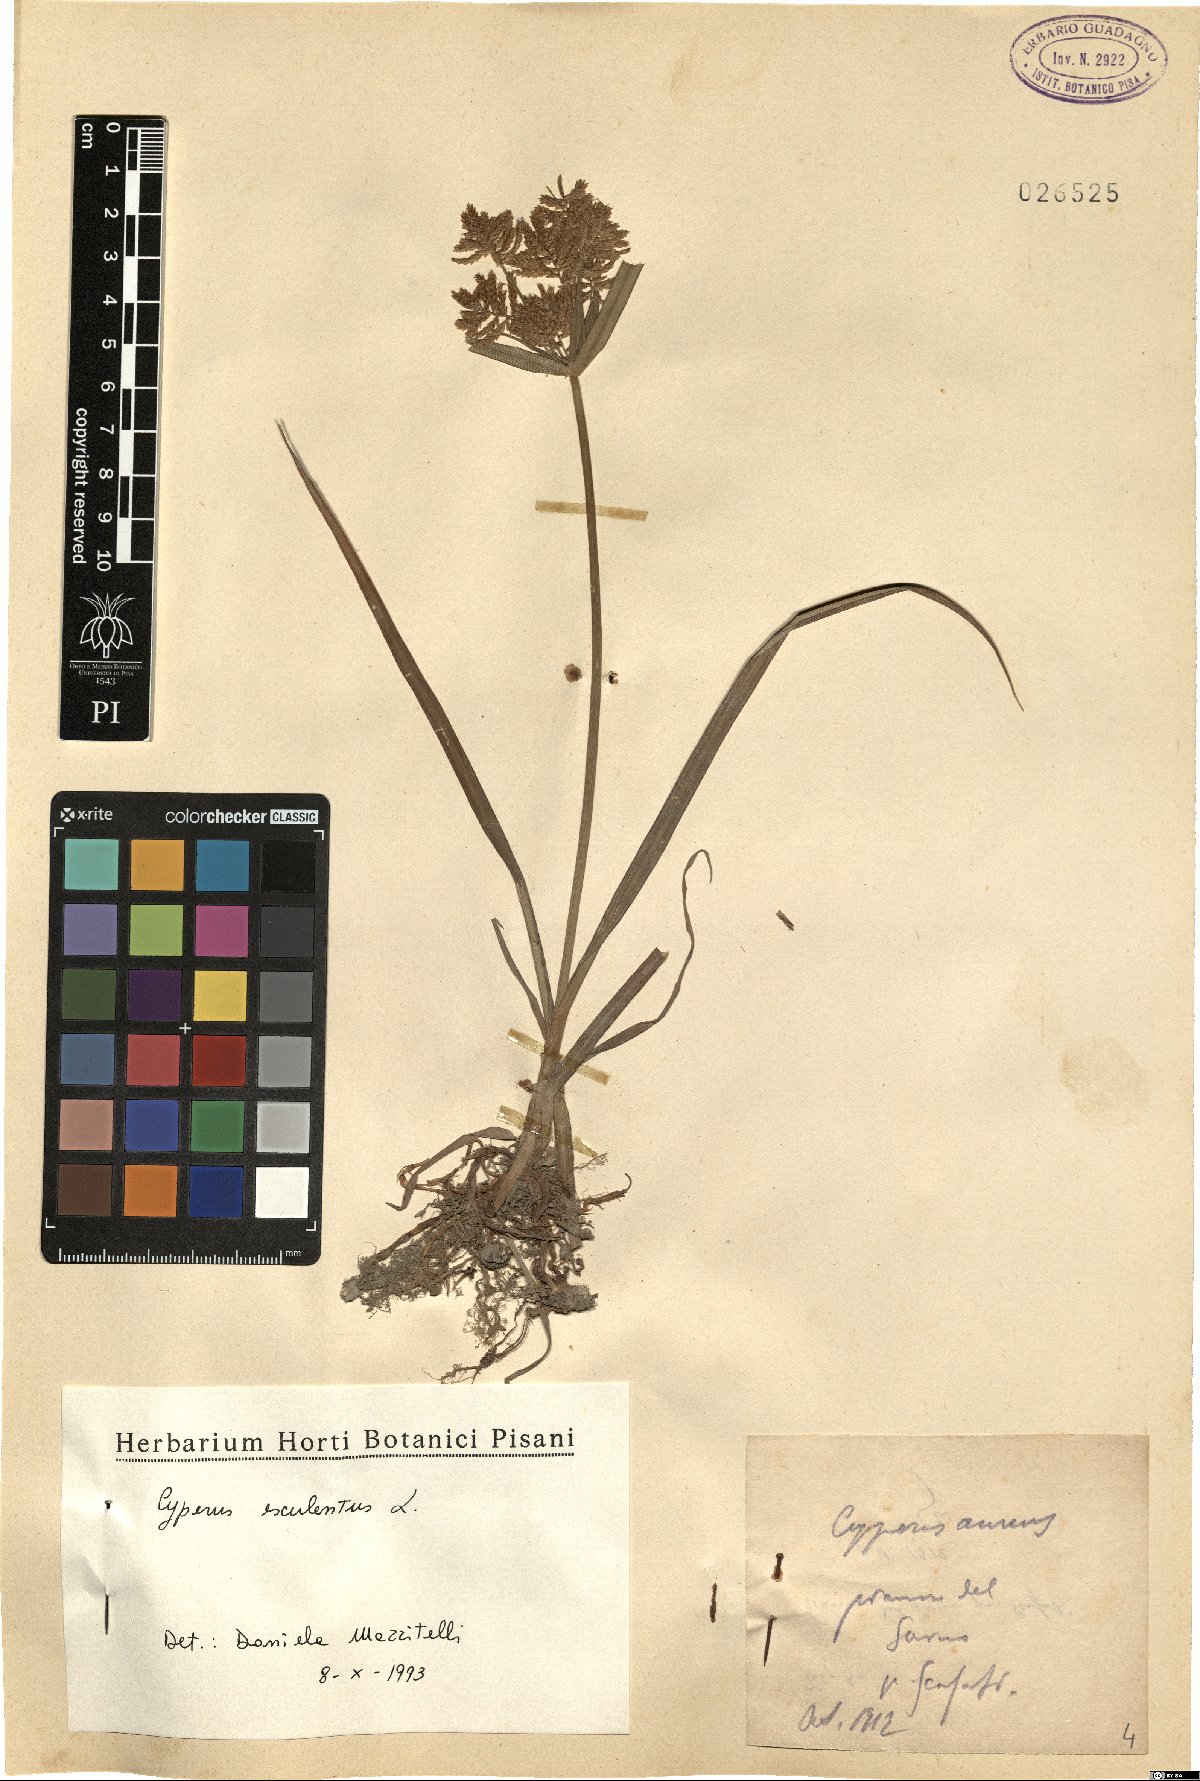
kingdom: Plantae
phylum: Tracheophyta
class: Liliopsida
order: Poales
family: Cyperaceae
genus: Cyperus
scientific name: Cyperus esculentus
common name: Yellow nutsedge
